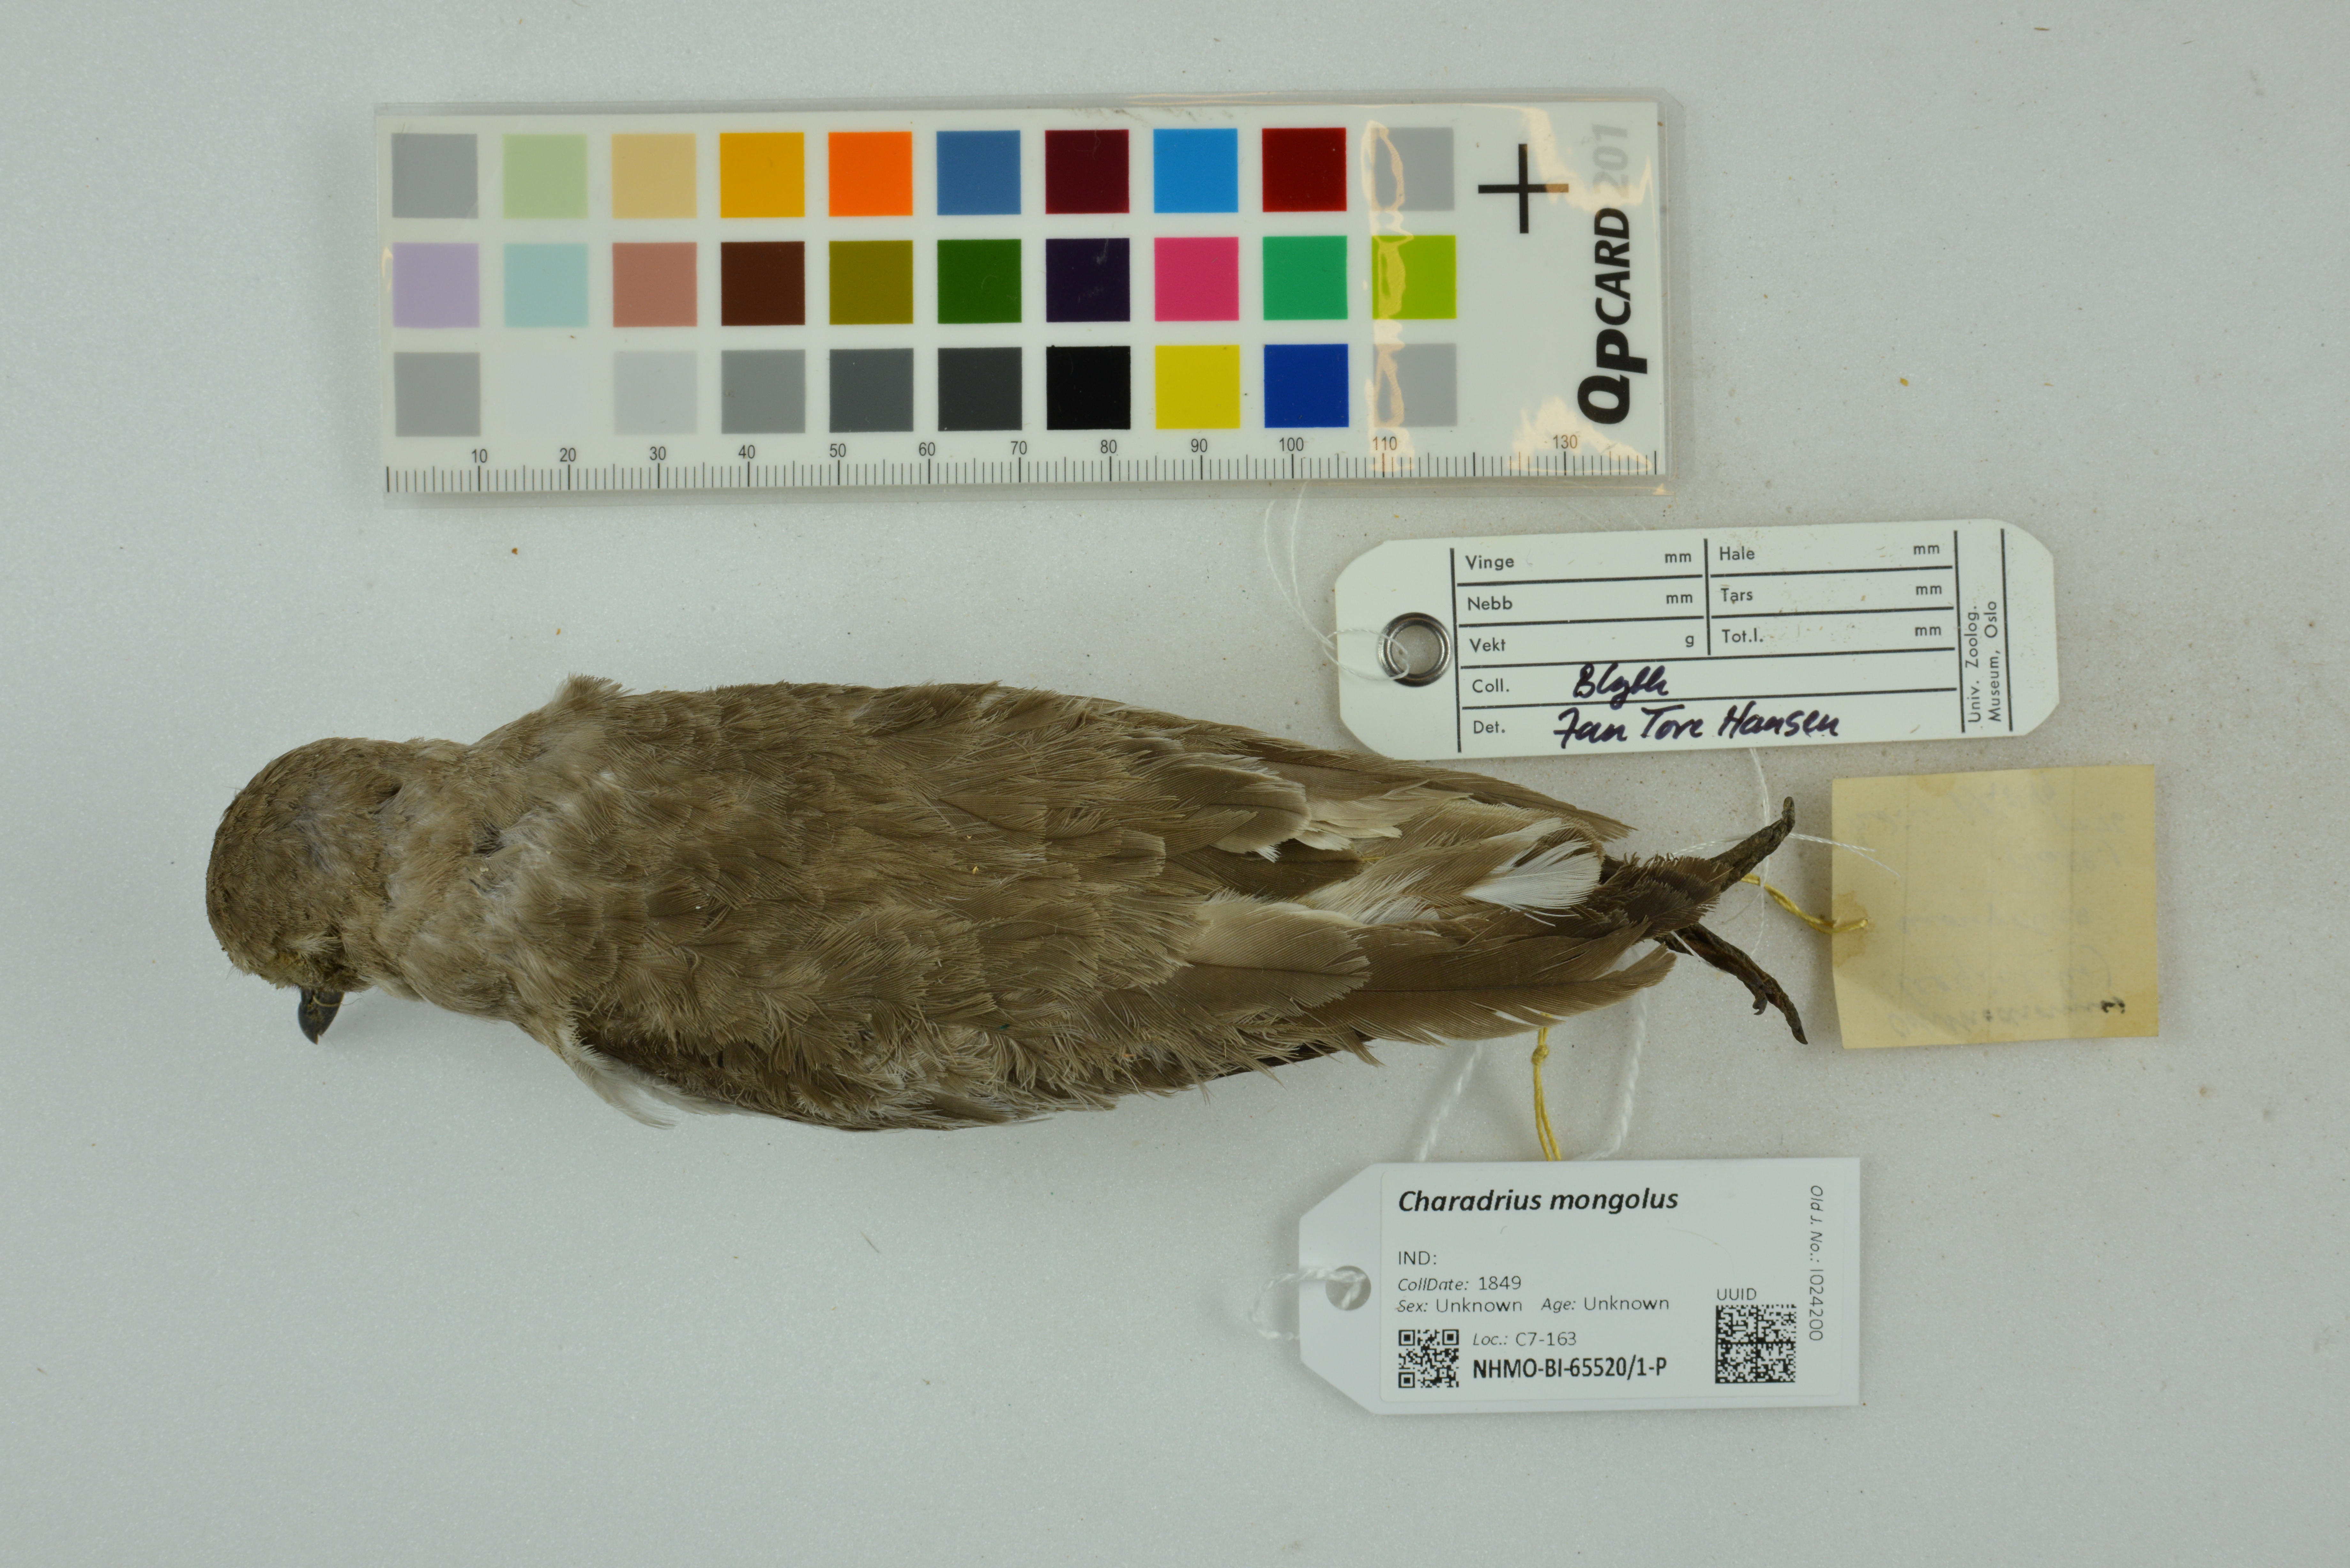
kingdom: Animalia
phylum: Chordata
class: Aves
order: Charadriiformes
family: Charadriidae
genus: Charadrius
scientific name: Charadrius mongolus
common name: Lesser sand-plover
